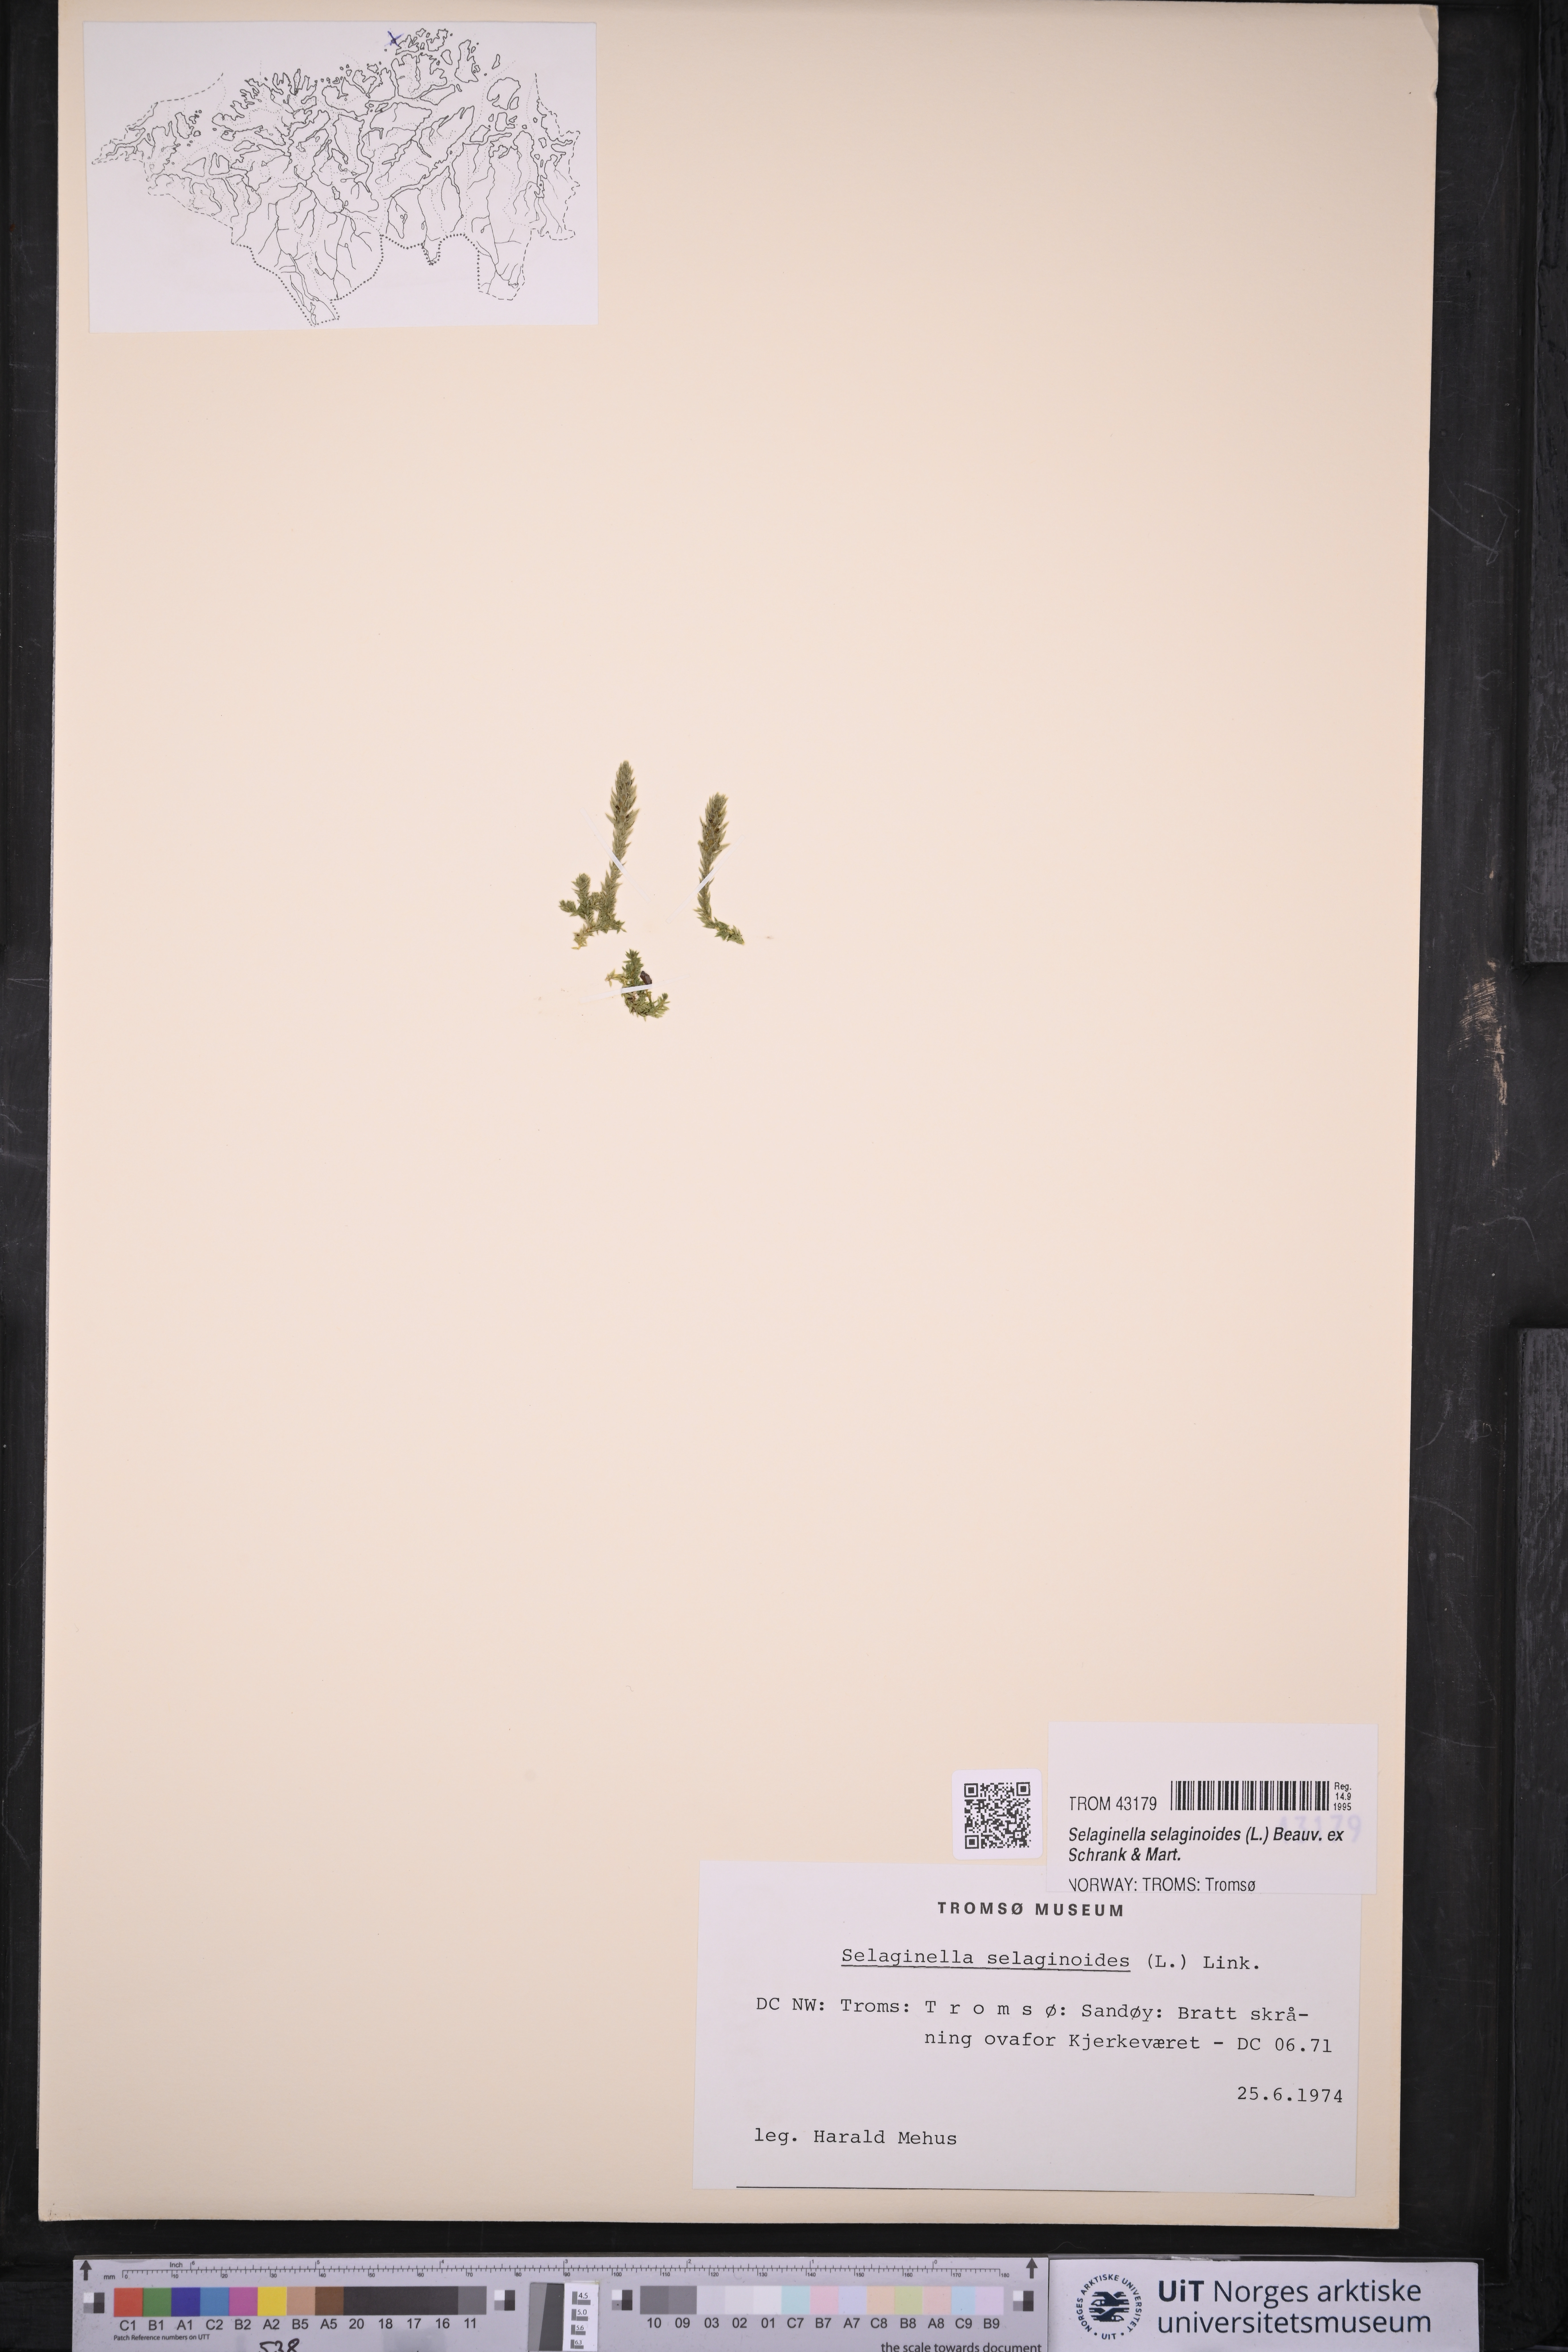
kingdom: Plantae
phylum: Tracheophyta
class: Lycopodiopsida
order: Selaginellales
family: Selaginellaceae
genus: Selaginella
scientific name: Selaginella selaginoides
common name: Prickly mountain-moss
